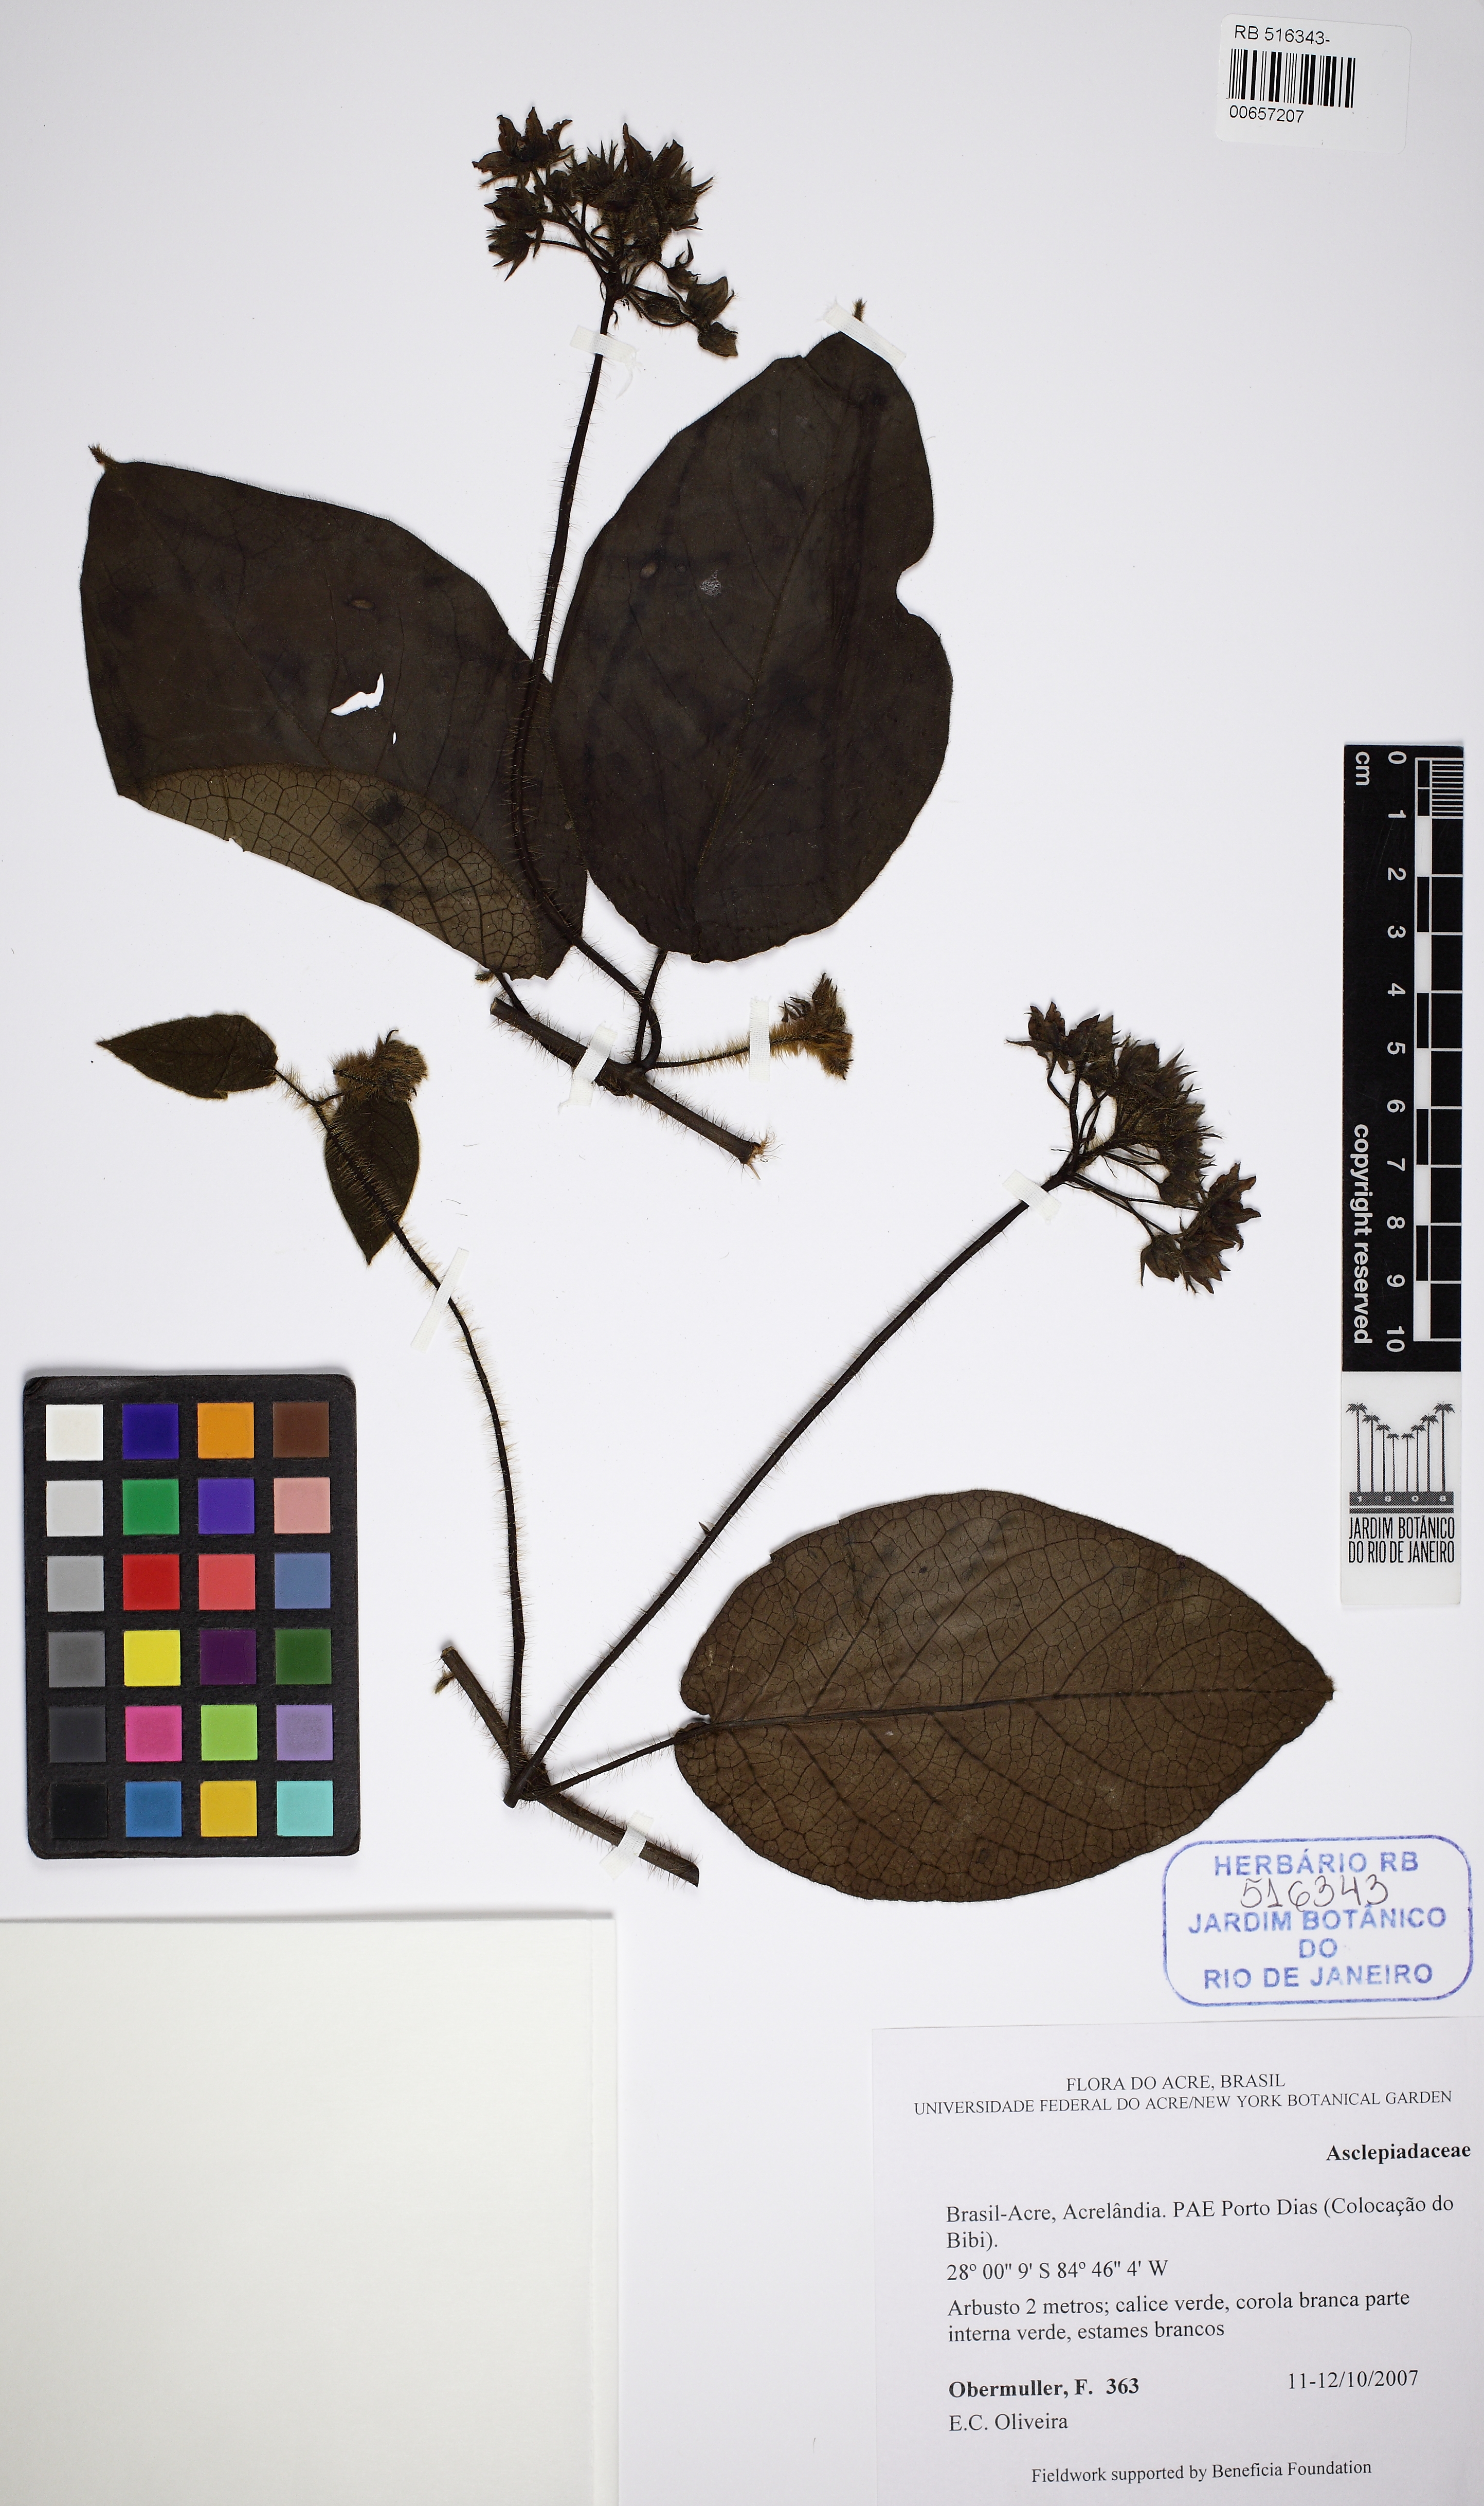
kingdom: Plantae
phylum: Tracheophyta
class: Magnoliopsida
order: Gentianales
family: Apocynaceae
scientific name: Apocynaceae
